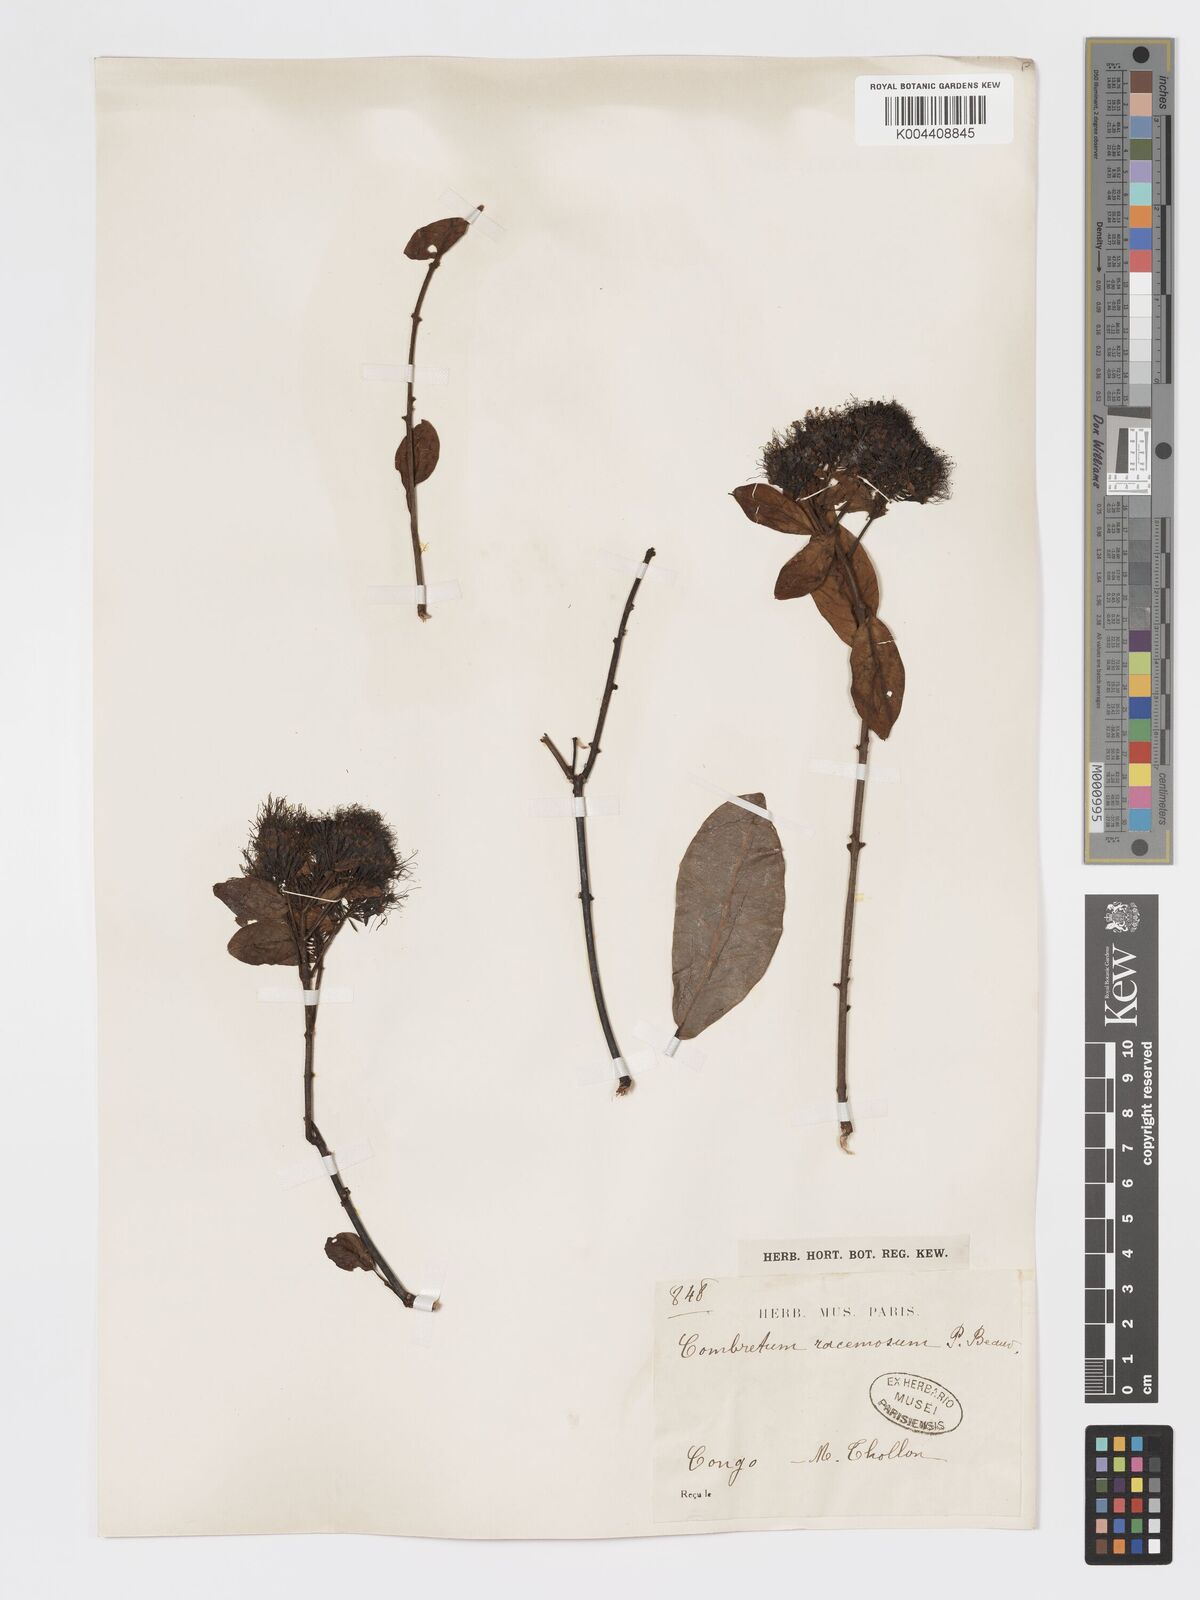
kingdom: Plantae
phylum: Tracheophyta
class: Magnoliopsida
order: Myrtales
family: Combretaceae
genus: Combretum
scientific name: Combretum racemosum
